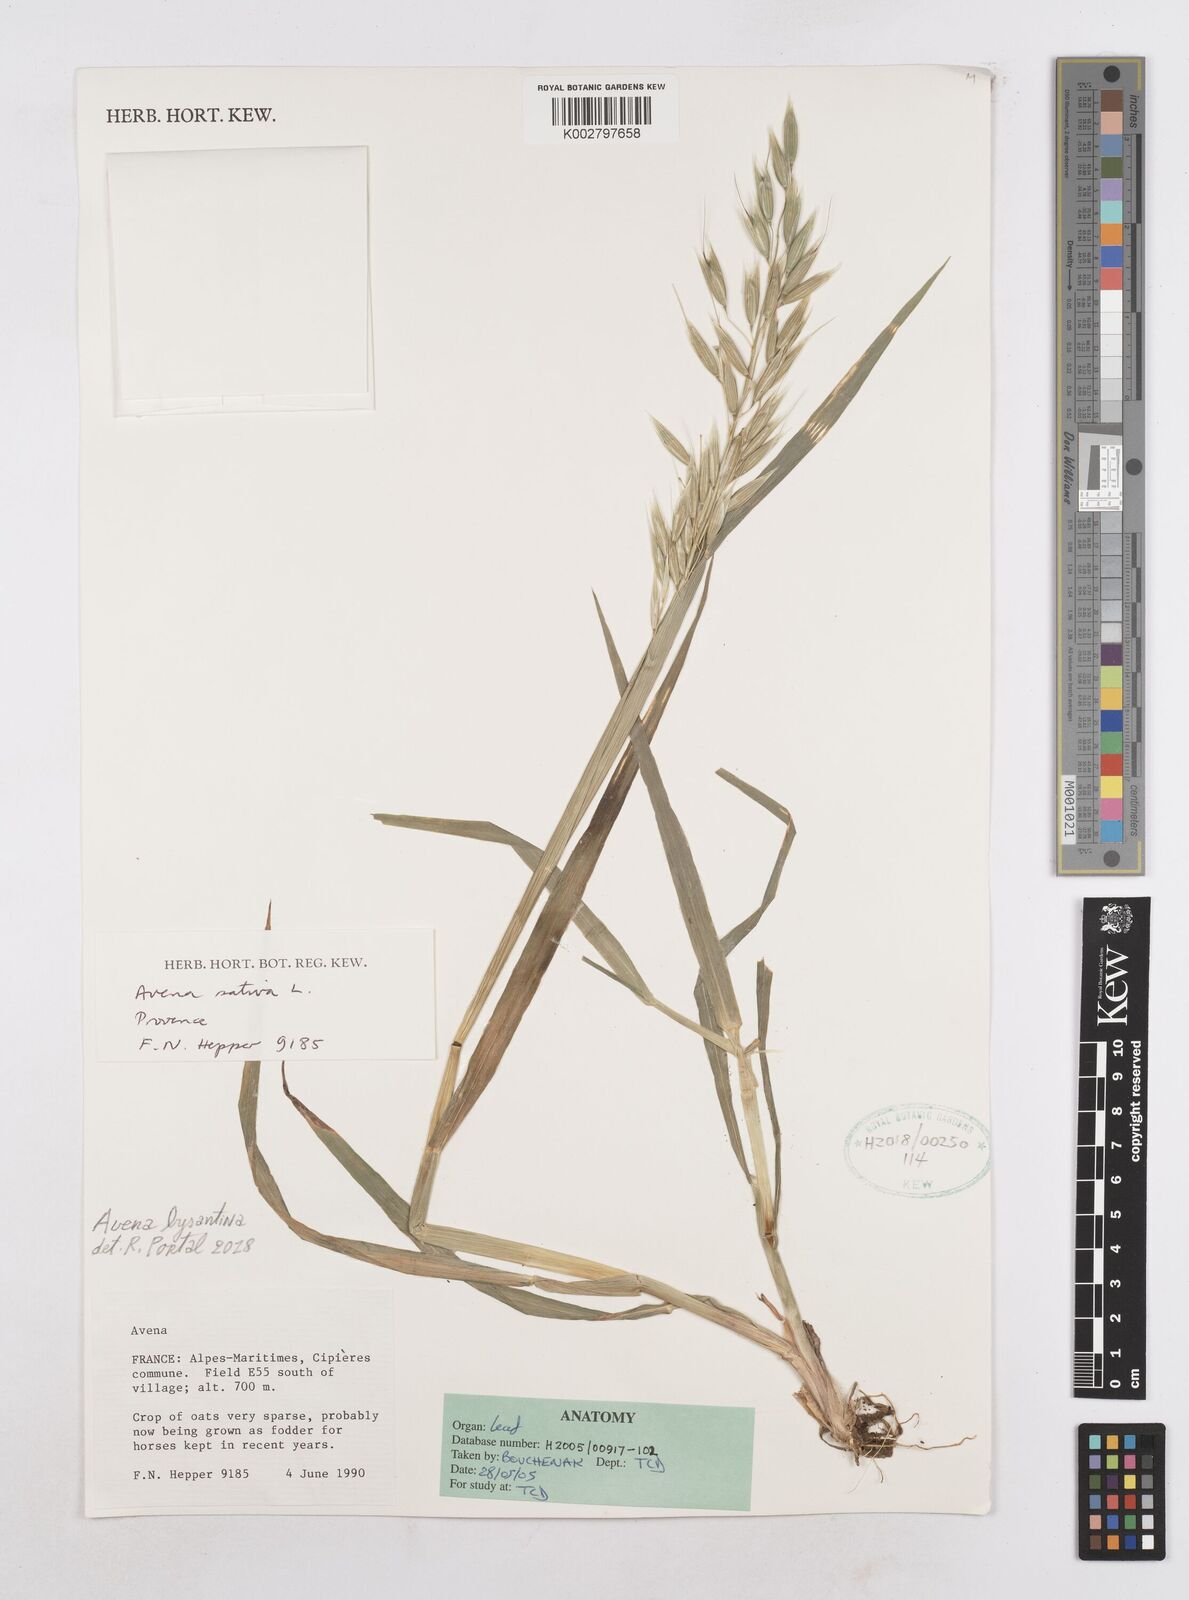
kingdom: Plantae
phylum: Tracheophyta
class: Liliopsida
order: Poales
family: Poaceae
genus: Avena
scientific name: Avena byzantina
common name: Algerian oat
